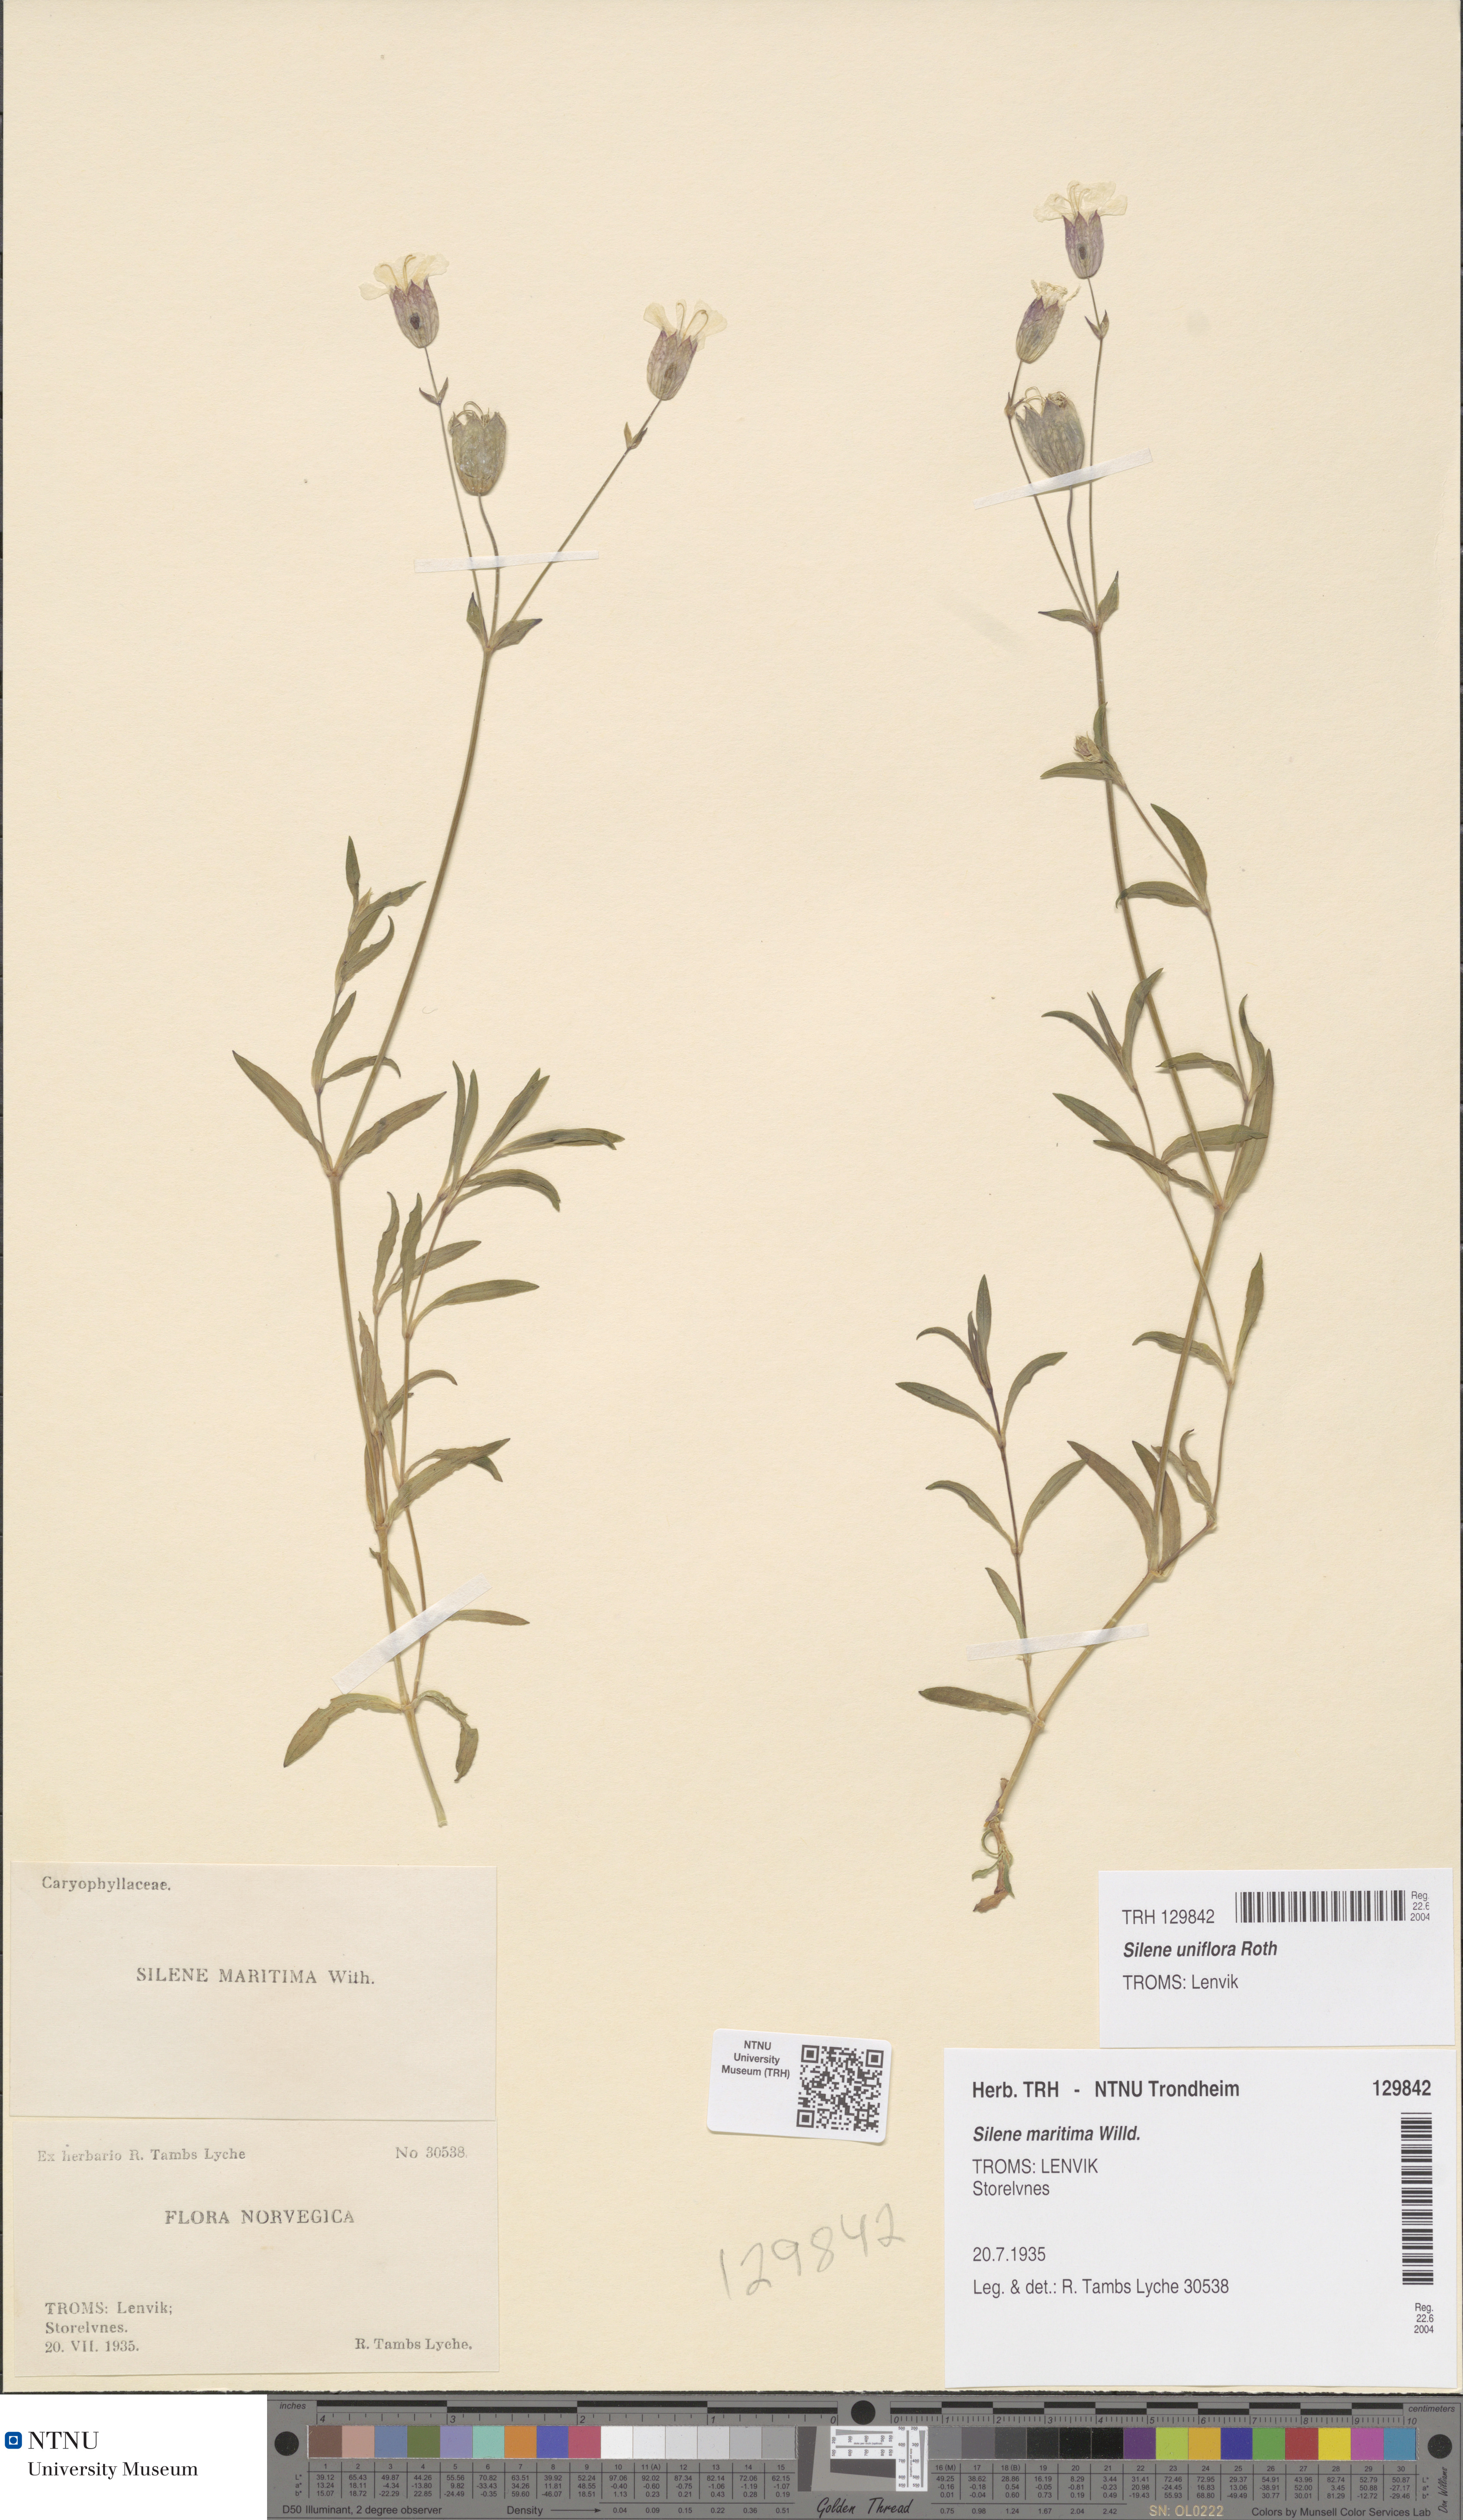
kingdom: Plantae
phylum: Tracheophyta
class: Magnoliopsida
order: Caryophyllales
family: Caryophyllaceae
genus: Silene
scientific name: Silene uniflora
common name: Sea campion
